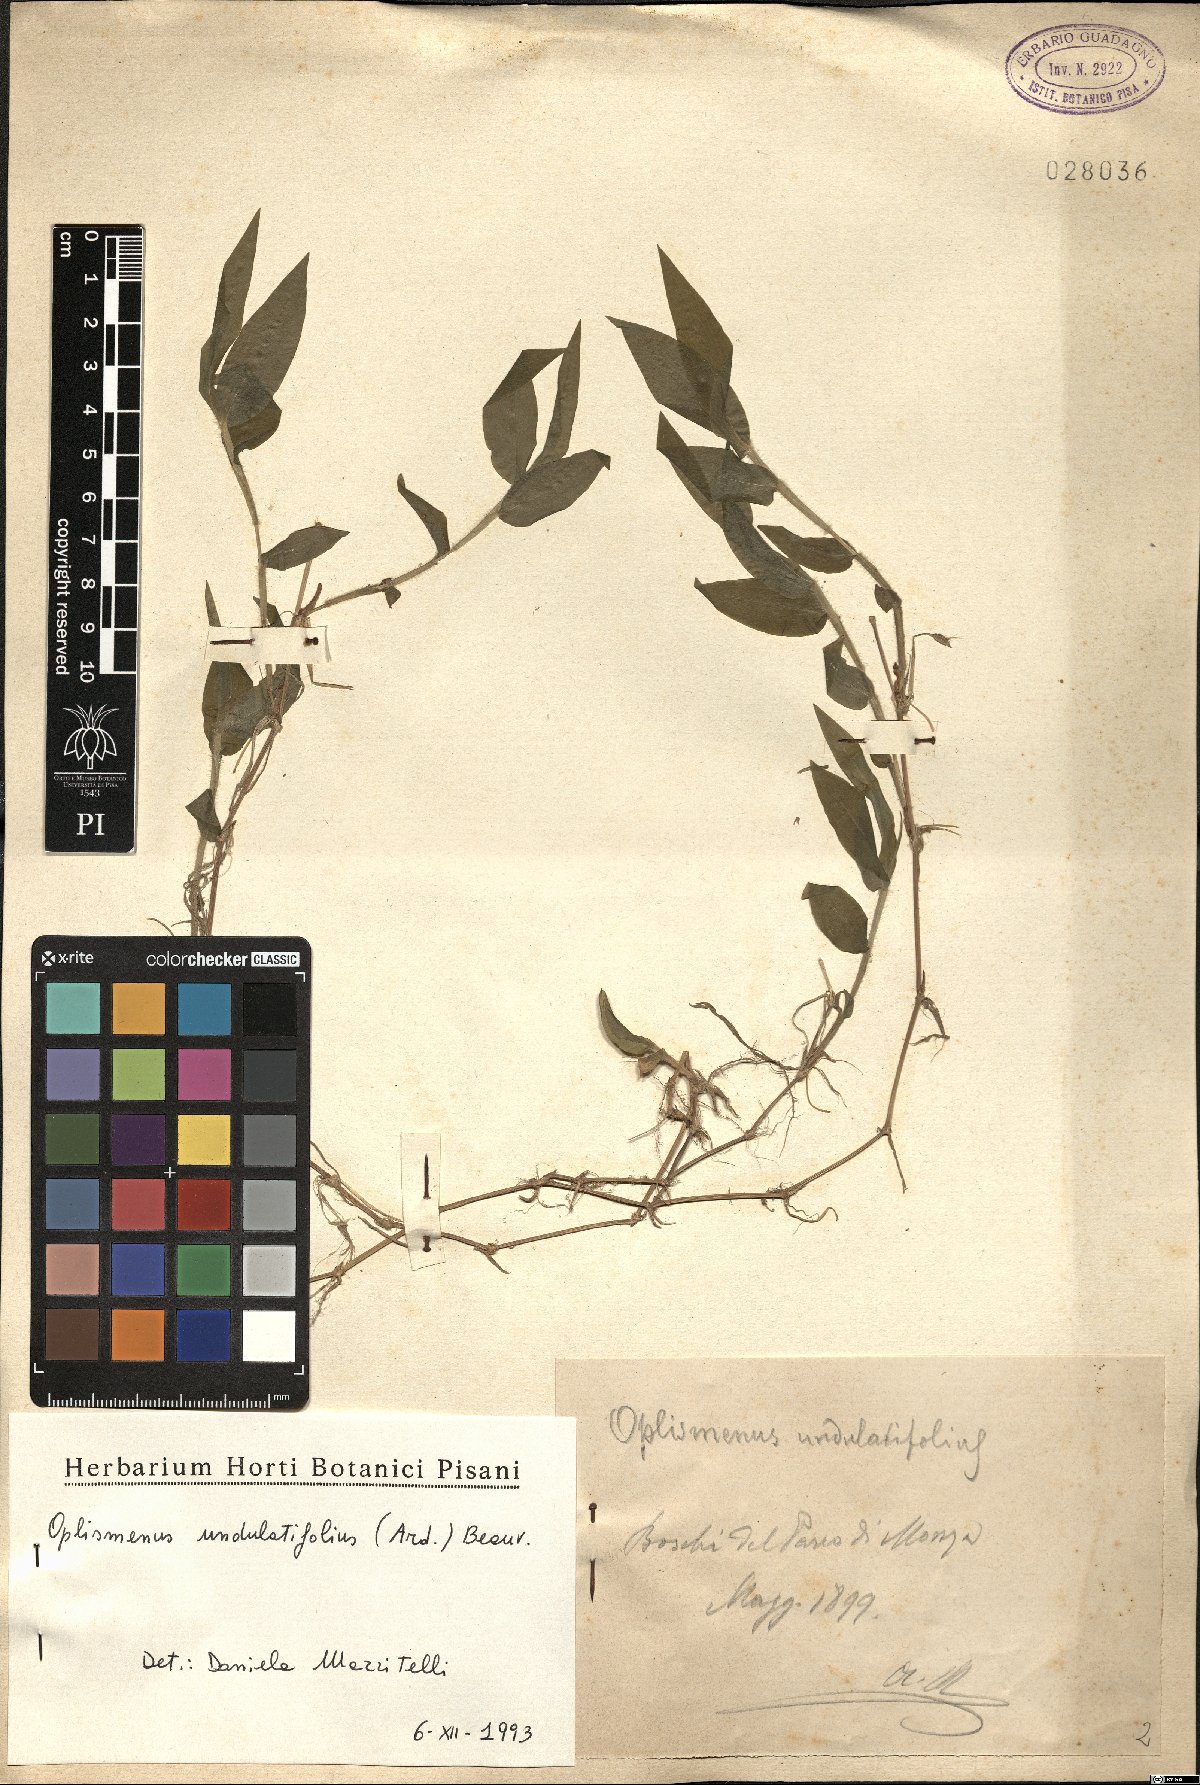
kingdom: Plantae
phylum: Tracheophyta
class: Liliopsida
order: Poales
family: Poaceae
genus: Oplismenus
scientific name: Oplismenus undulatifolius
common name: Wavyleaf basketgrass
